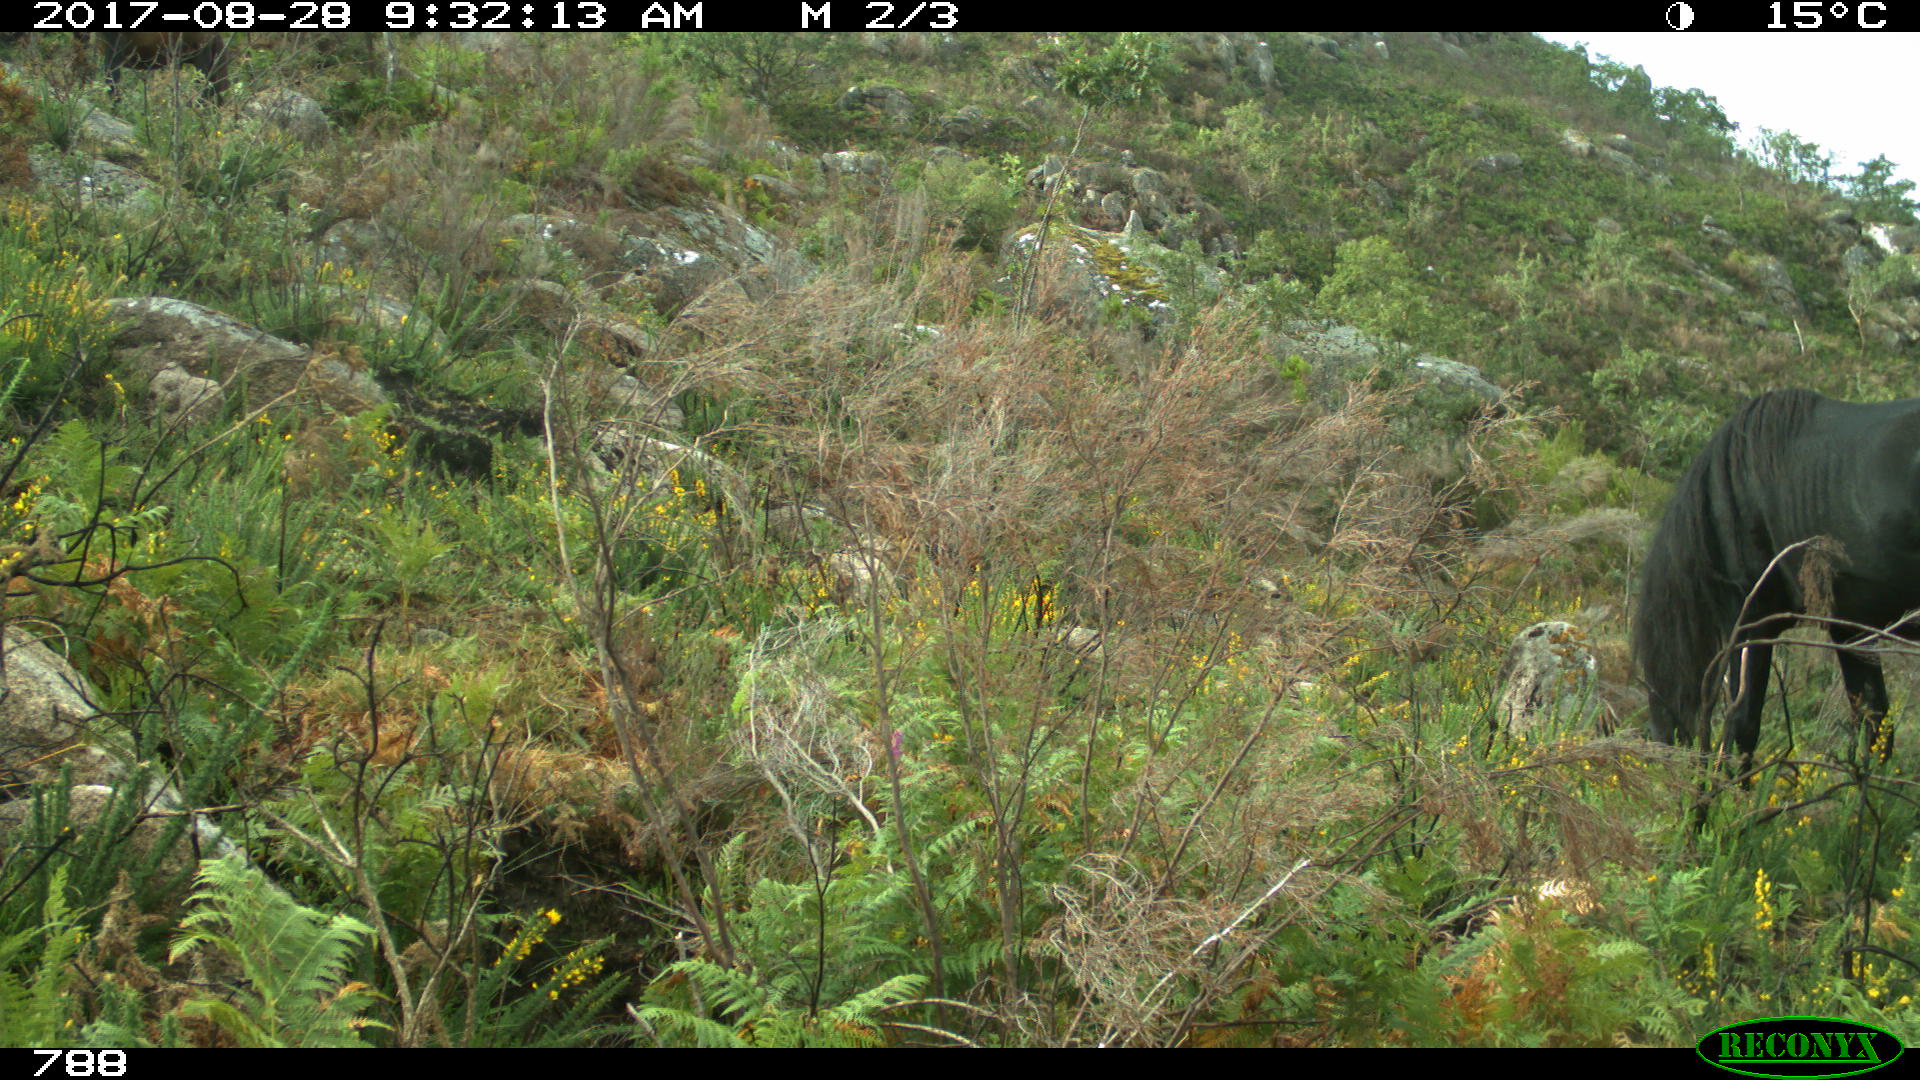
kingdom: Animalia
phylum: Chordata
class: Mammalia
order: Perissodactyla
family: Equidae
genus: Equus
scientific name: Equus caballus
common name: Horse
